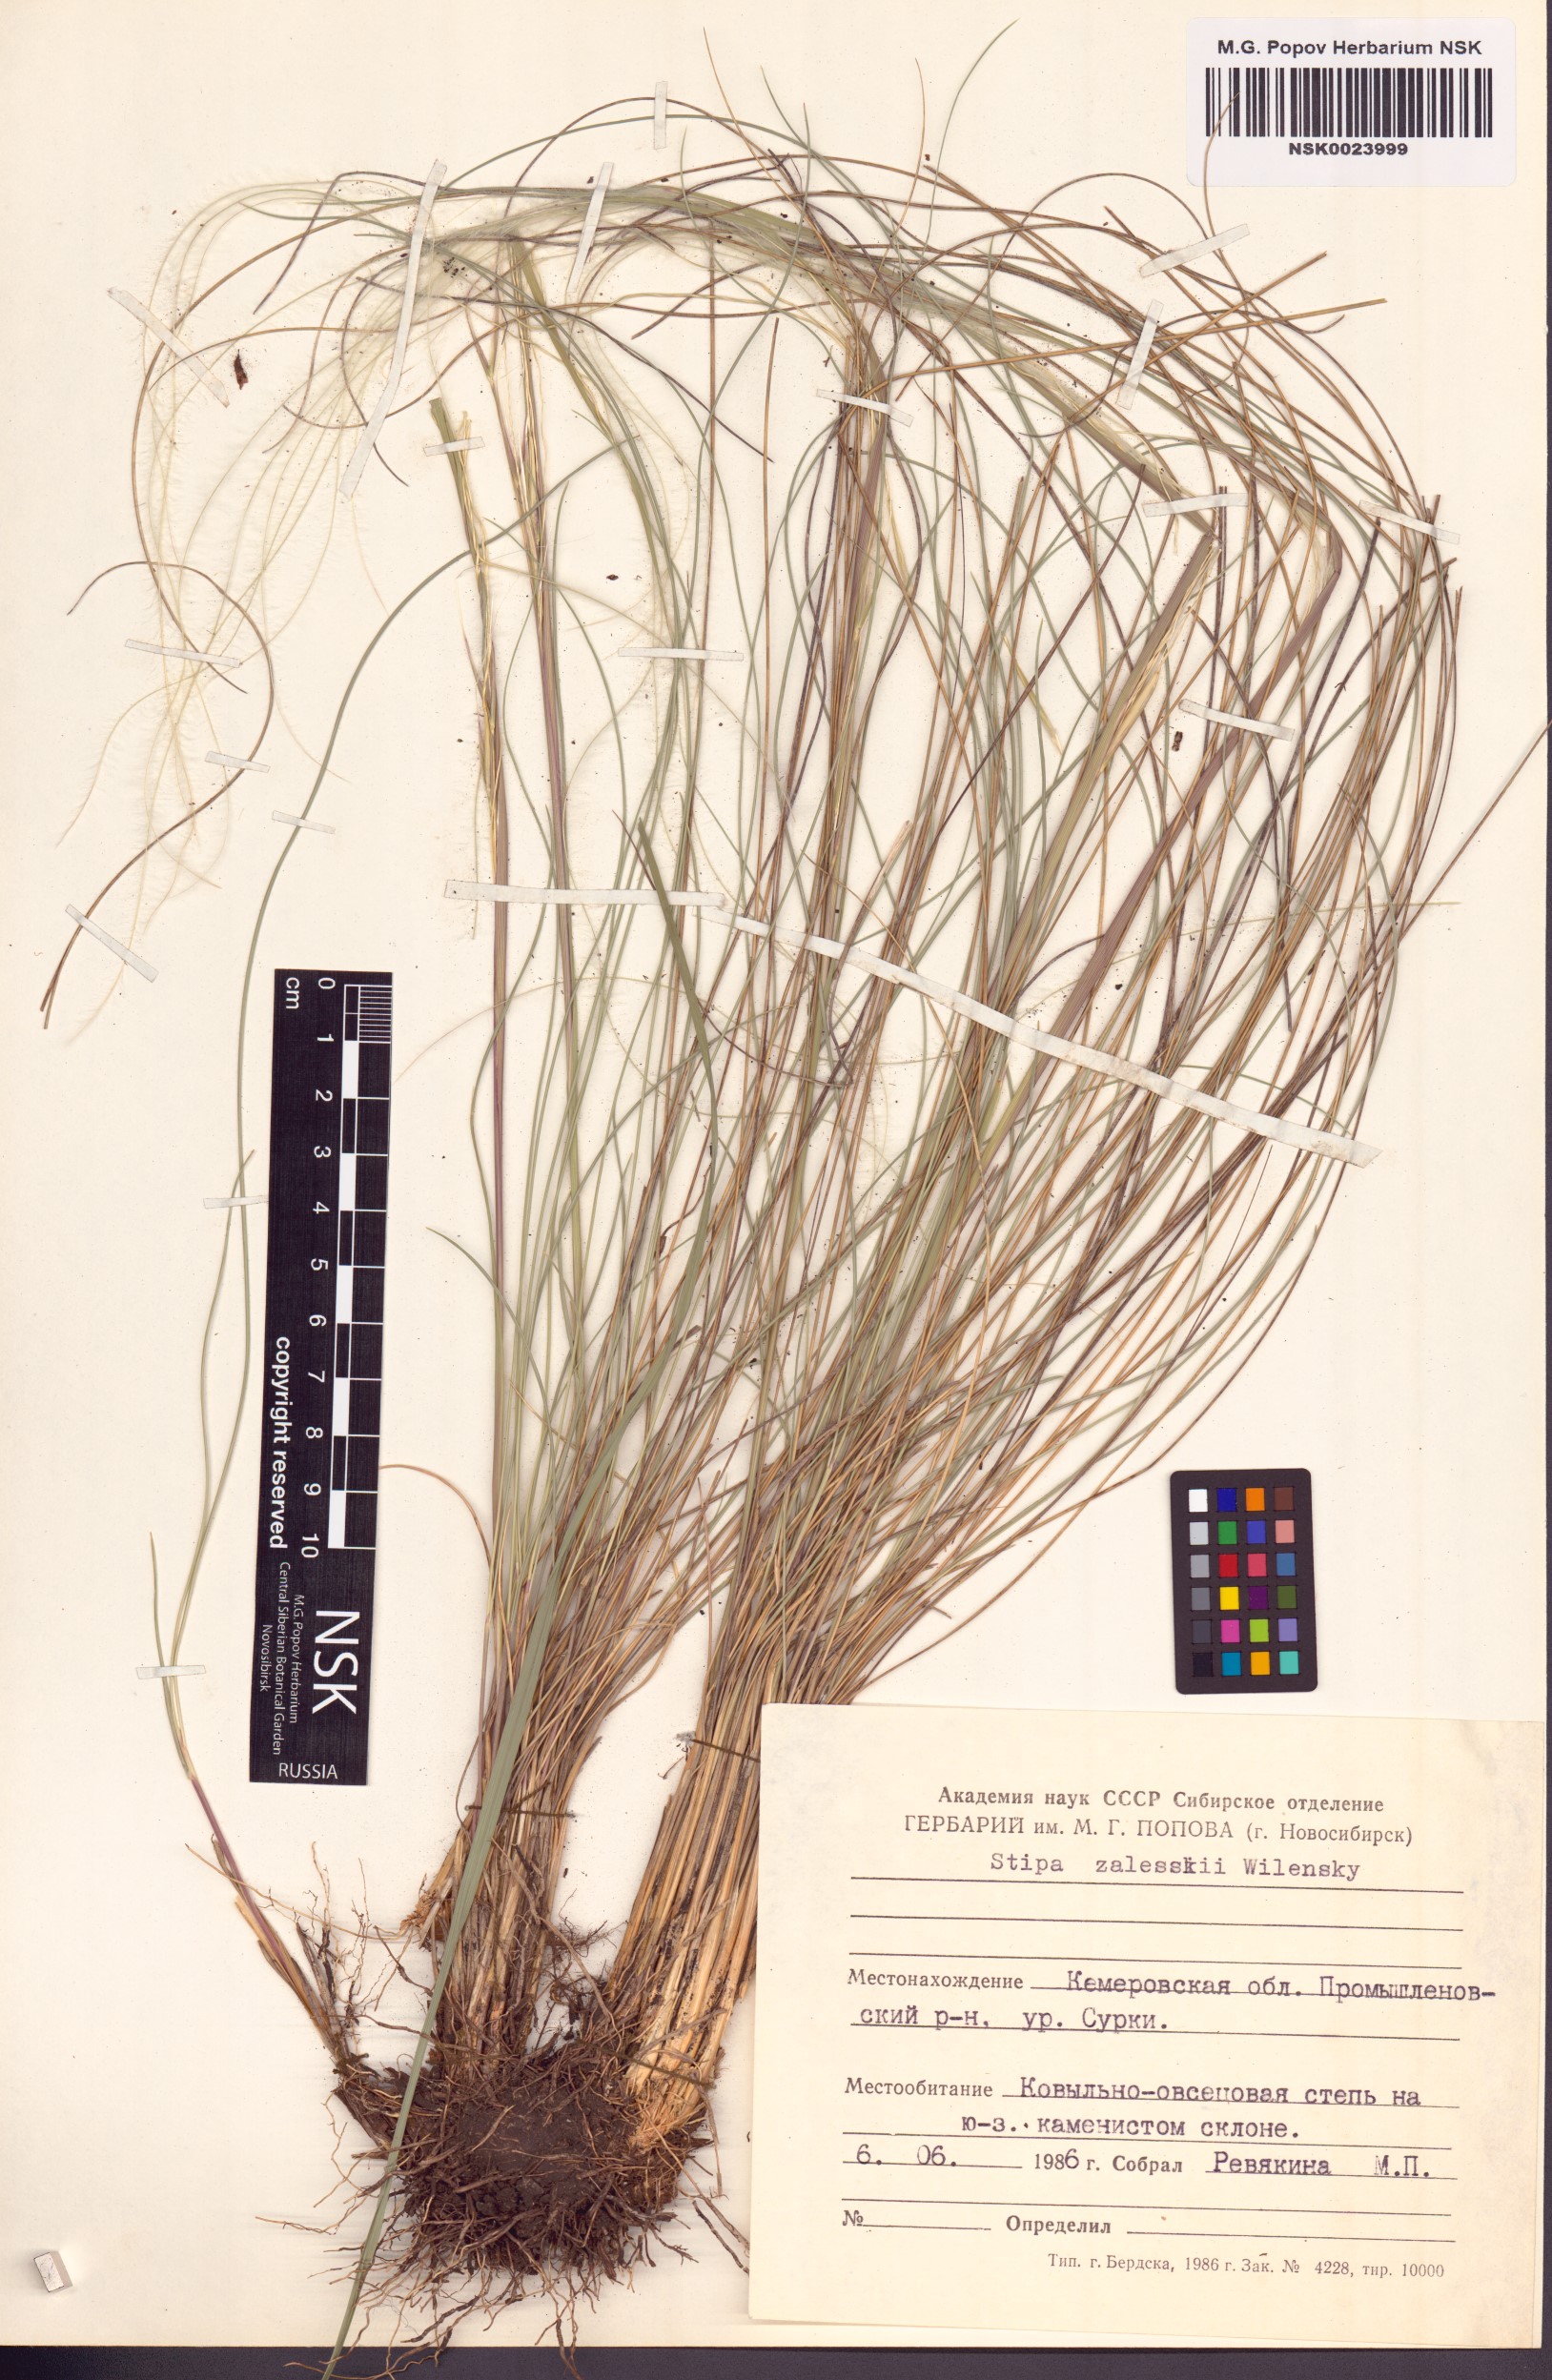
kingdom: Plantae
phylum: Tracheophyta
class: Liliopsida
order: Poales
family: Poaceae
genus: Stipa
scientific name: Stipa zalesskii
